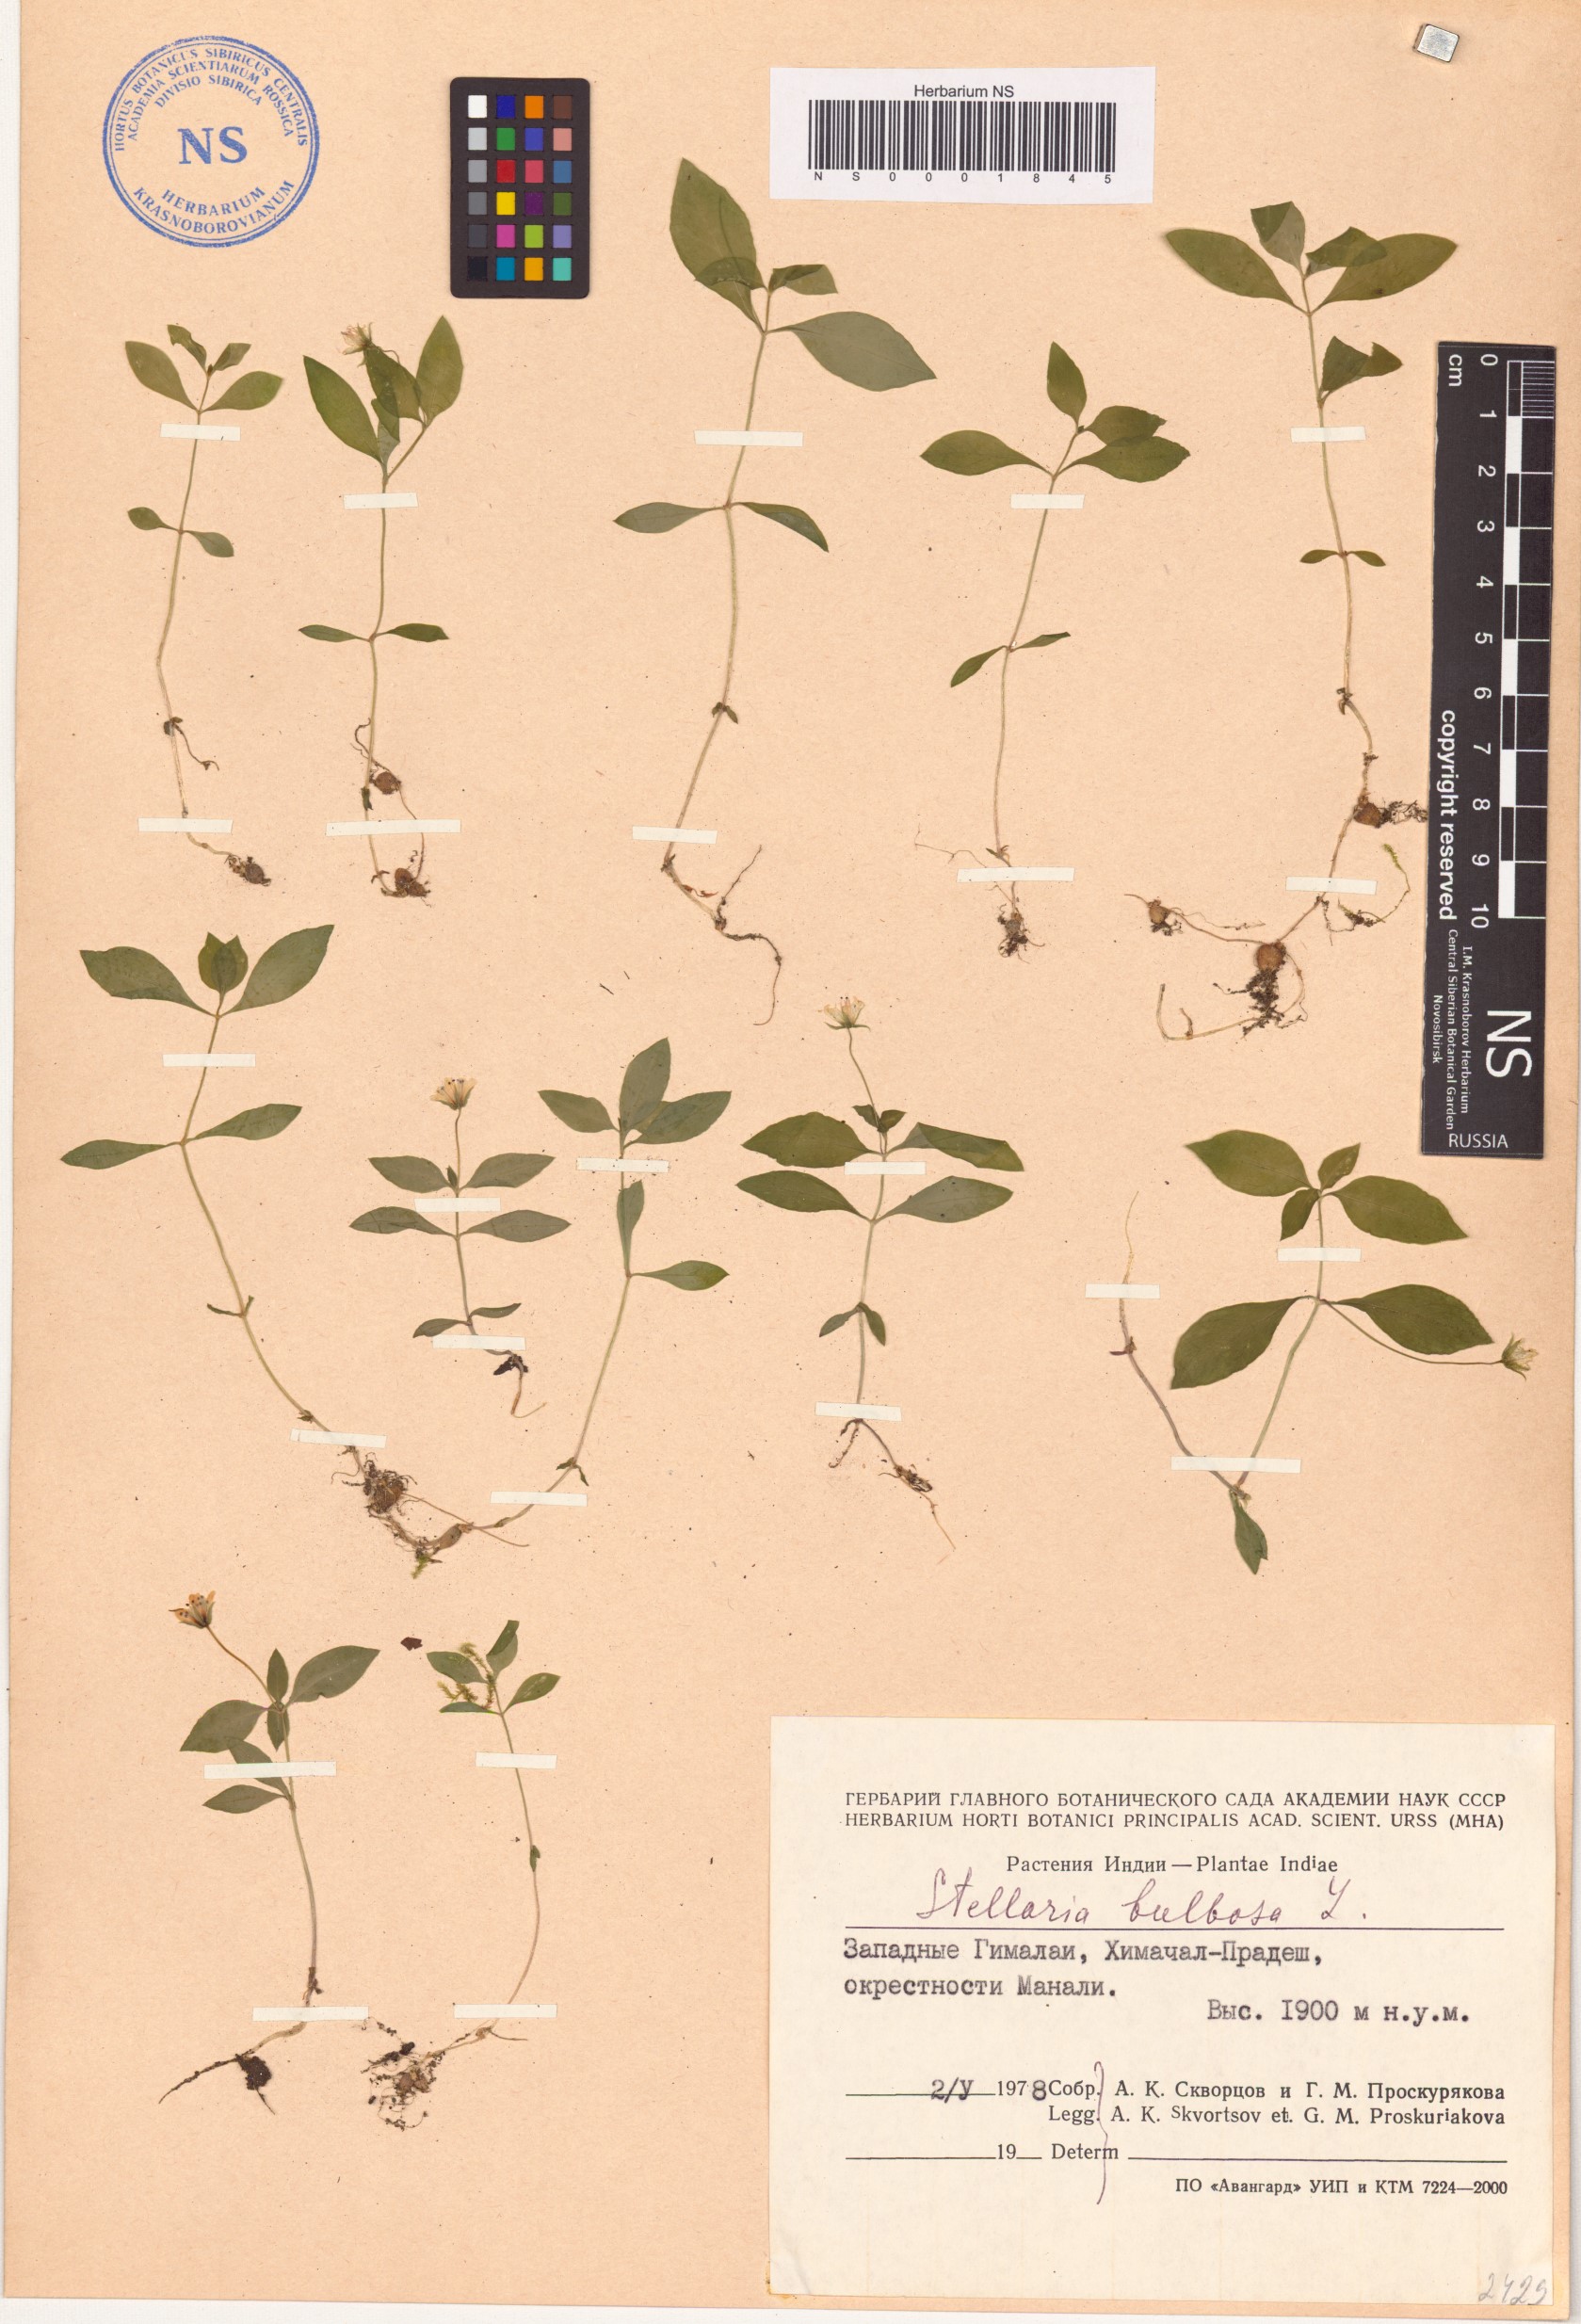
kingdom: Plantae
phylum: Tracheophyta
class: Magnoliopsida
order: Caryophyllales
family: Caryophyllaceae
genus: Pseudostellaria
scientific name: Pseudostellaria europaea
